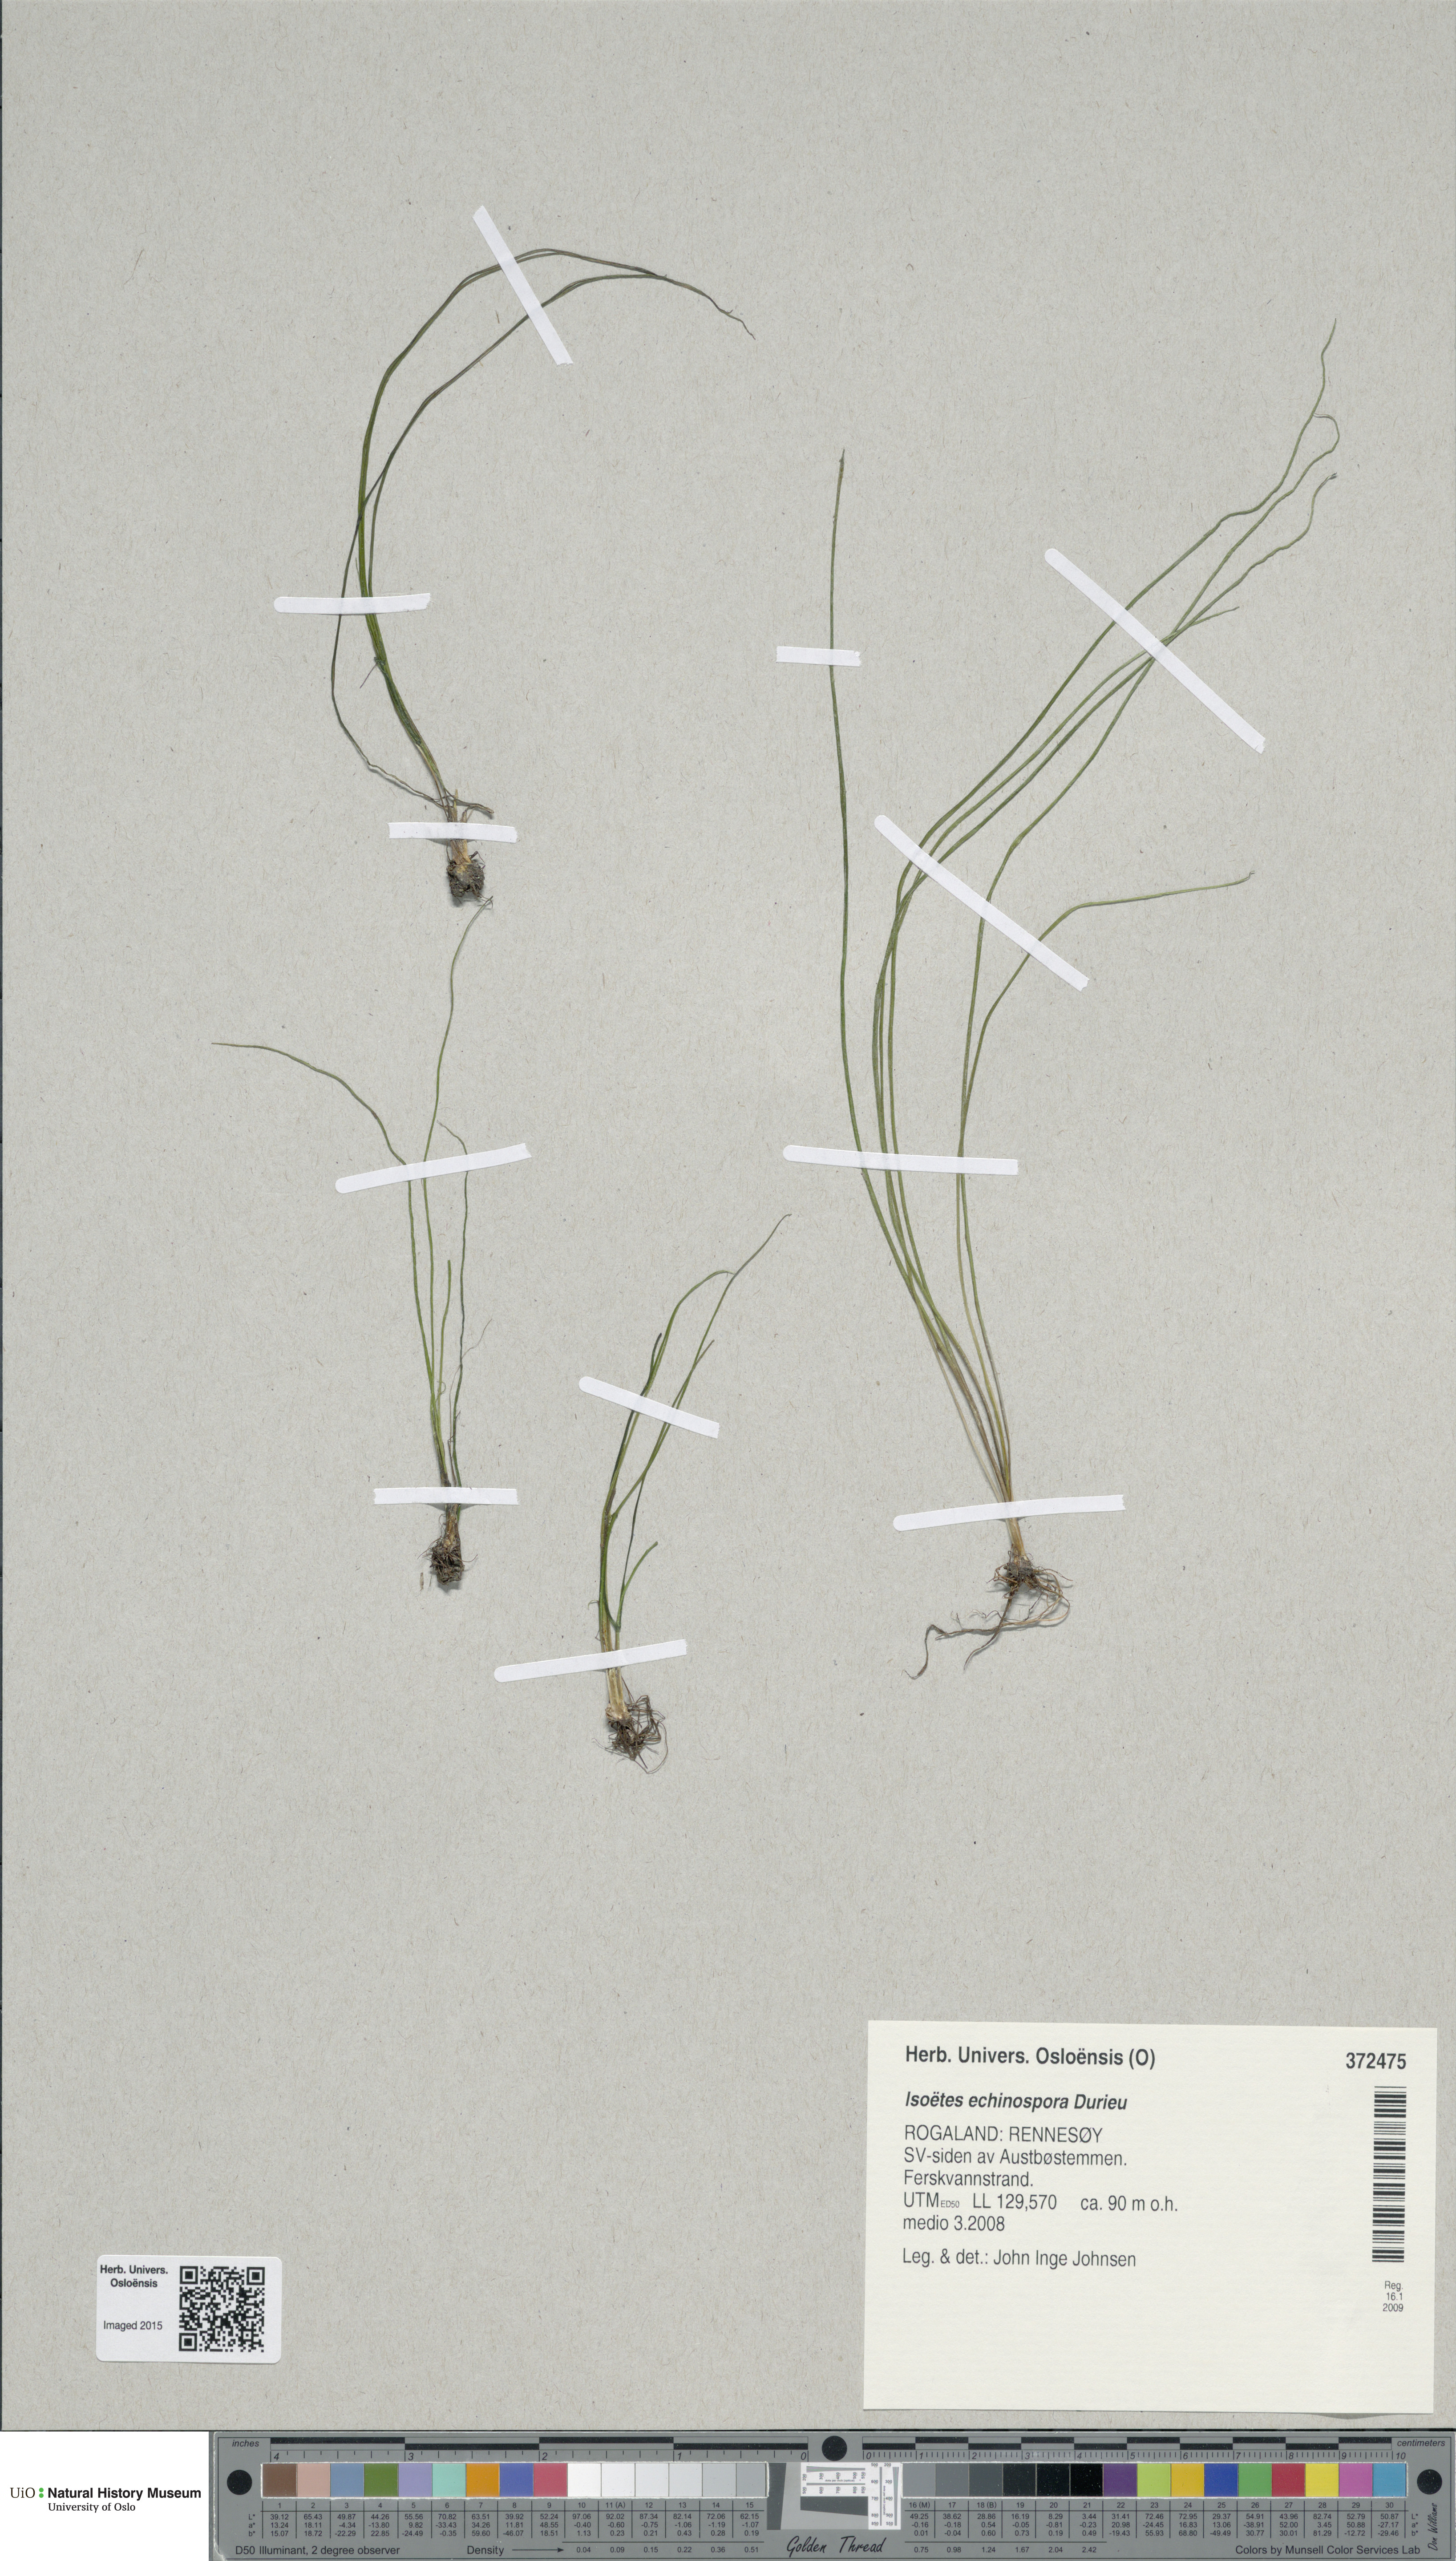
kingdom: Plantae
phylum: Tracheophyta
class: Lycopodiopsida
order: Isoetales
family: Isoetaceae
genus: Isoetes
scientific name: Isoetes echinospora
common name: Spring quillwort
